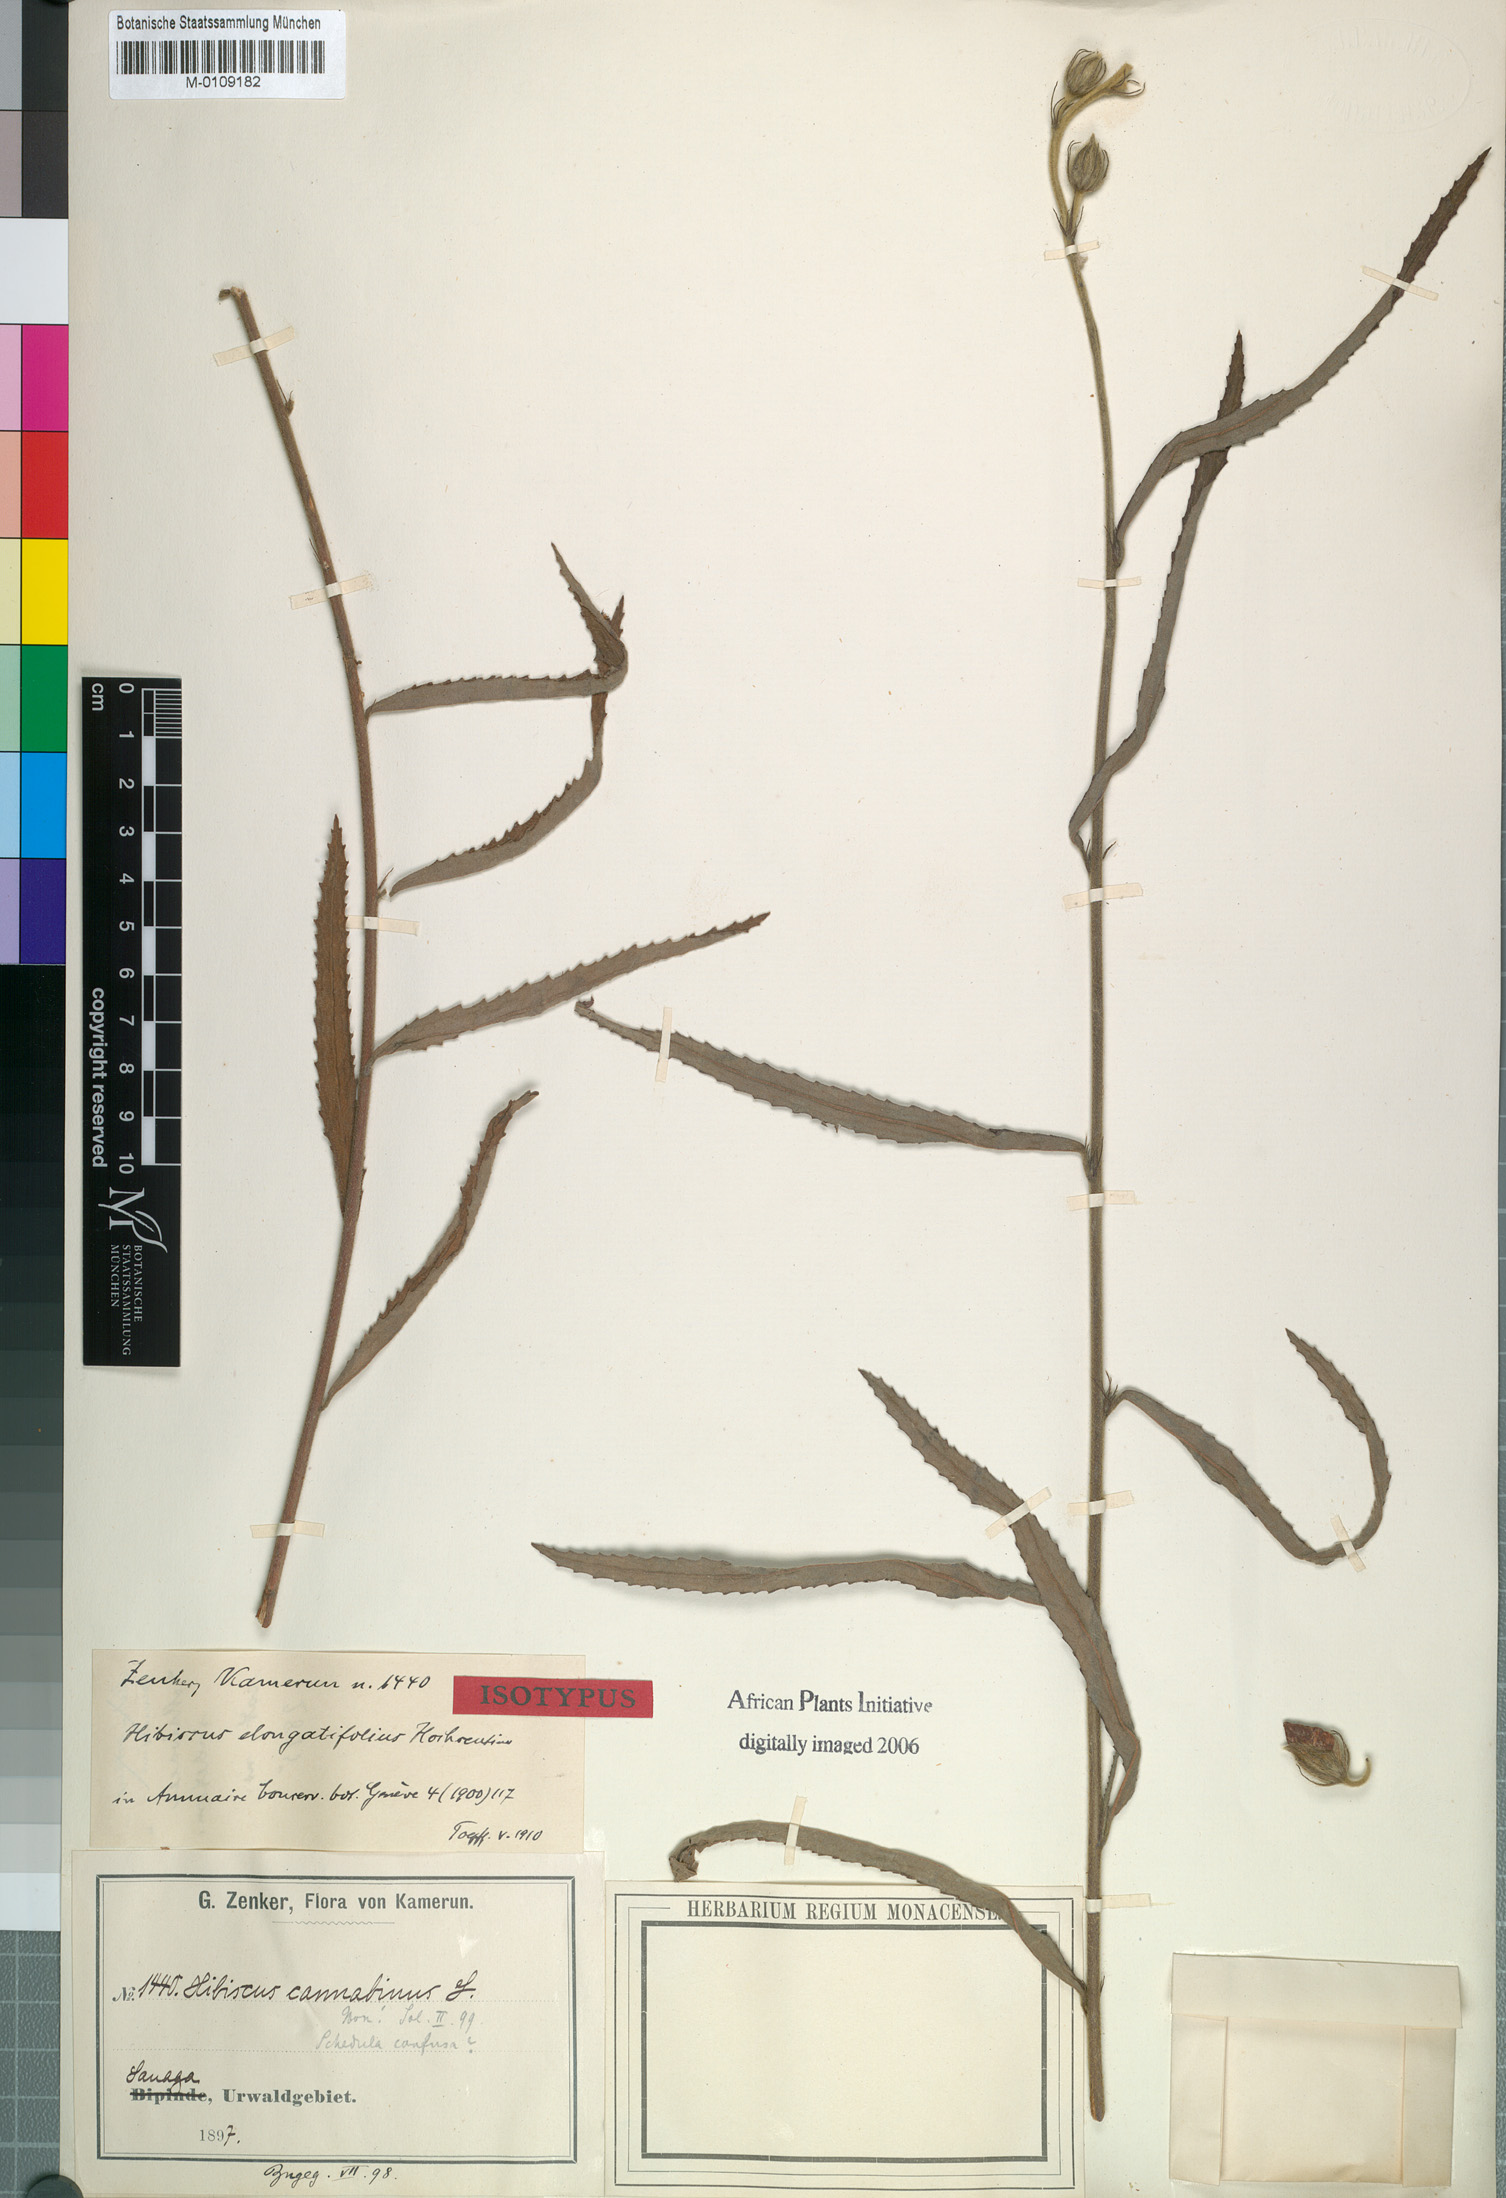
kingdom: Plantae
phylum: Tracheophyta
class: Magnoliopsida
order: Malvales
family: Malvaceae
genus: Hibiscus
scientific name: Hibiscus elongatifolius
